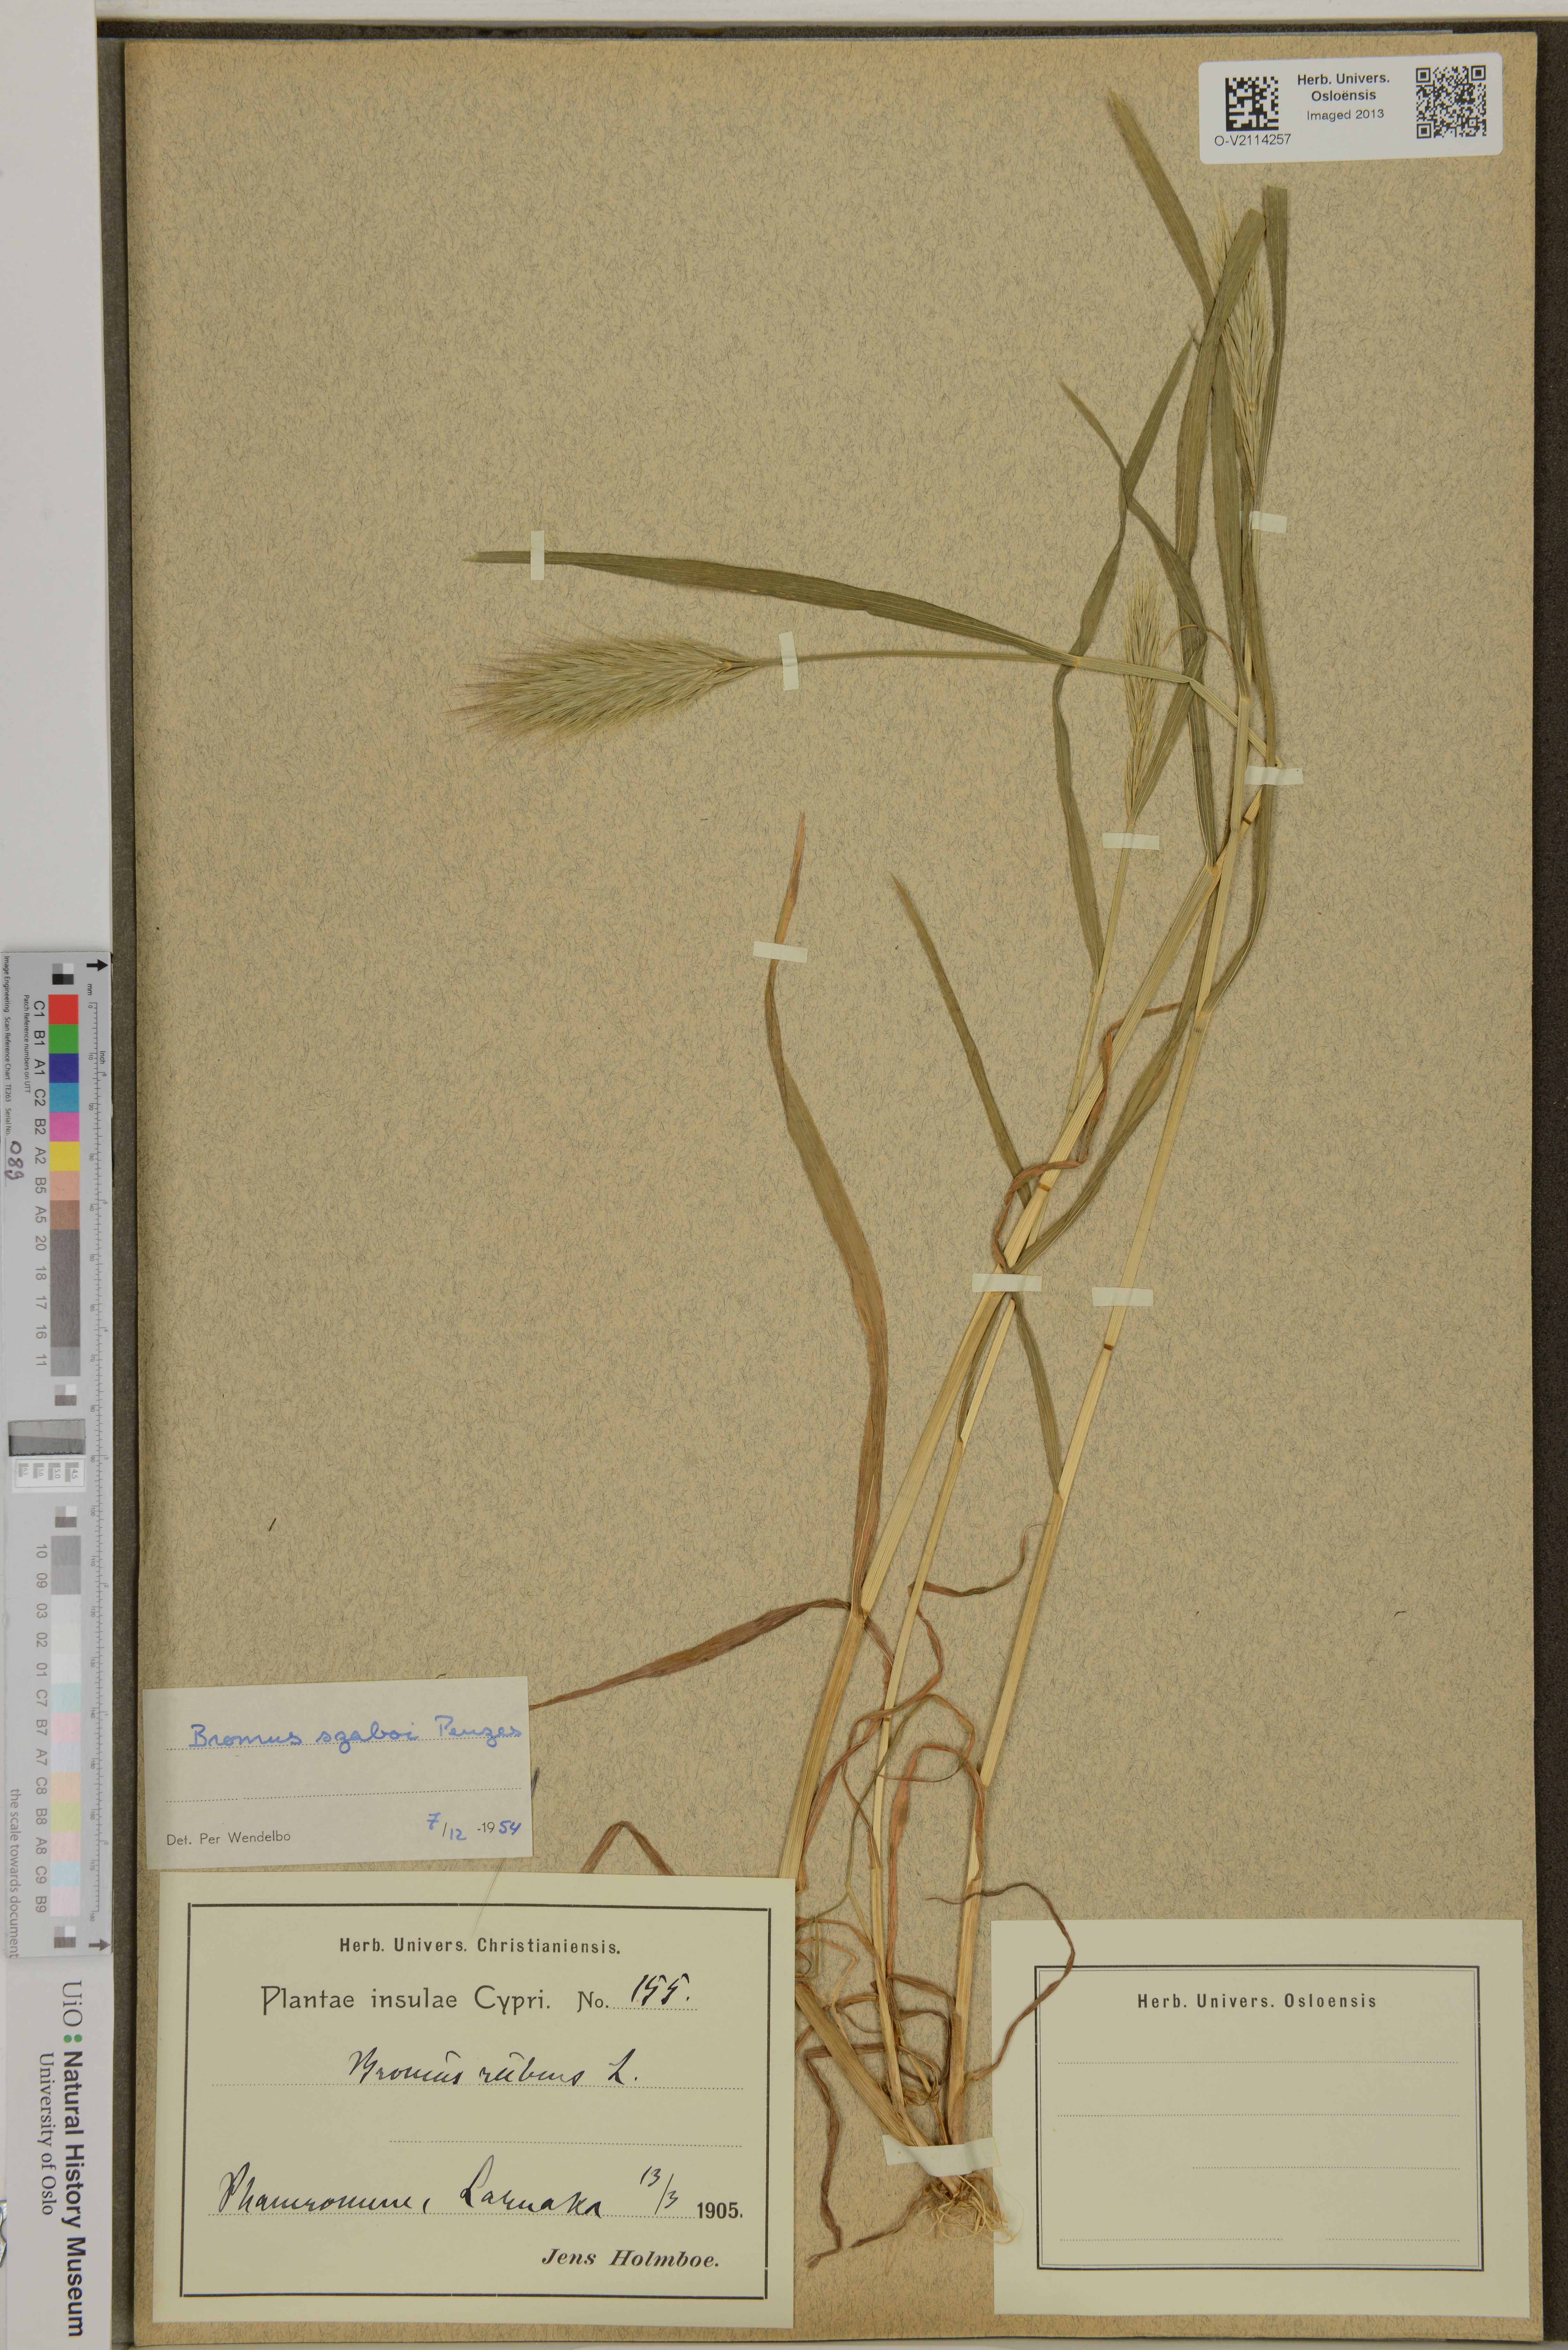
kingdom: Plantae
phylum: Tracheophyta
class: Liliopsida
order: Poales
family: Poaceae
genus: Bromus
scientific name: Bromus chrysopogon
